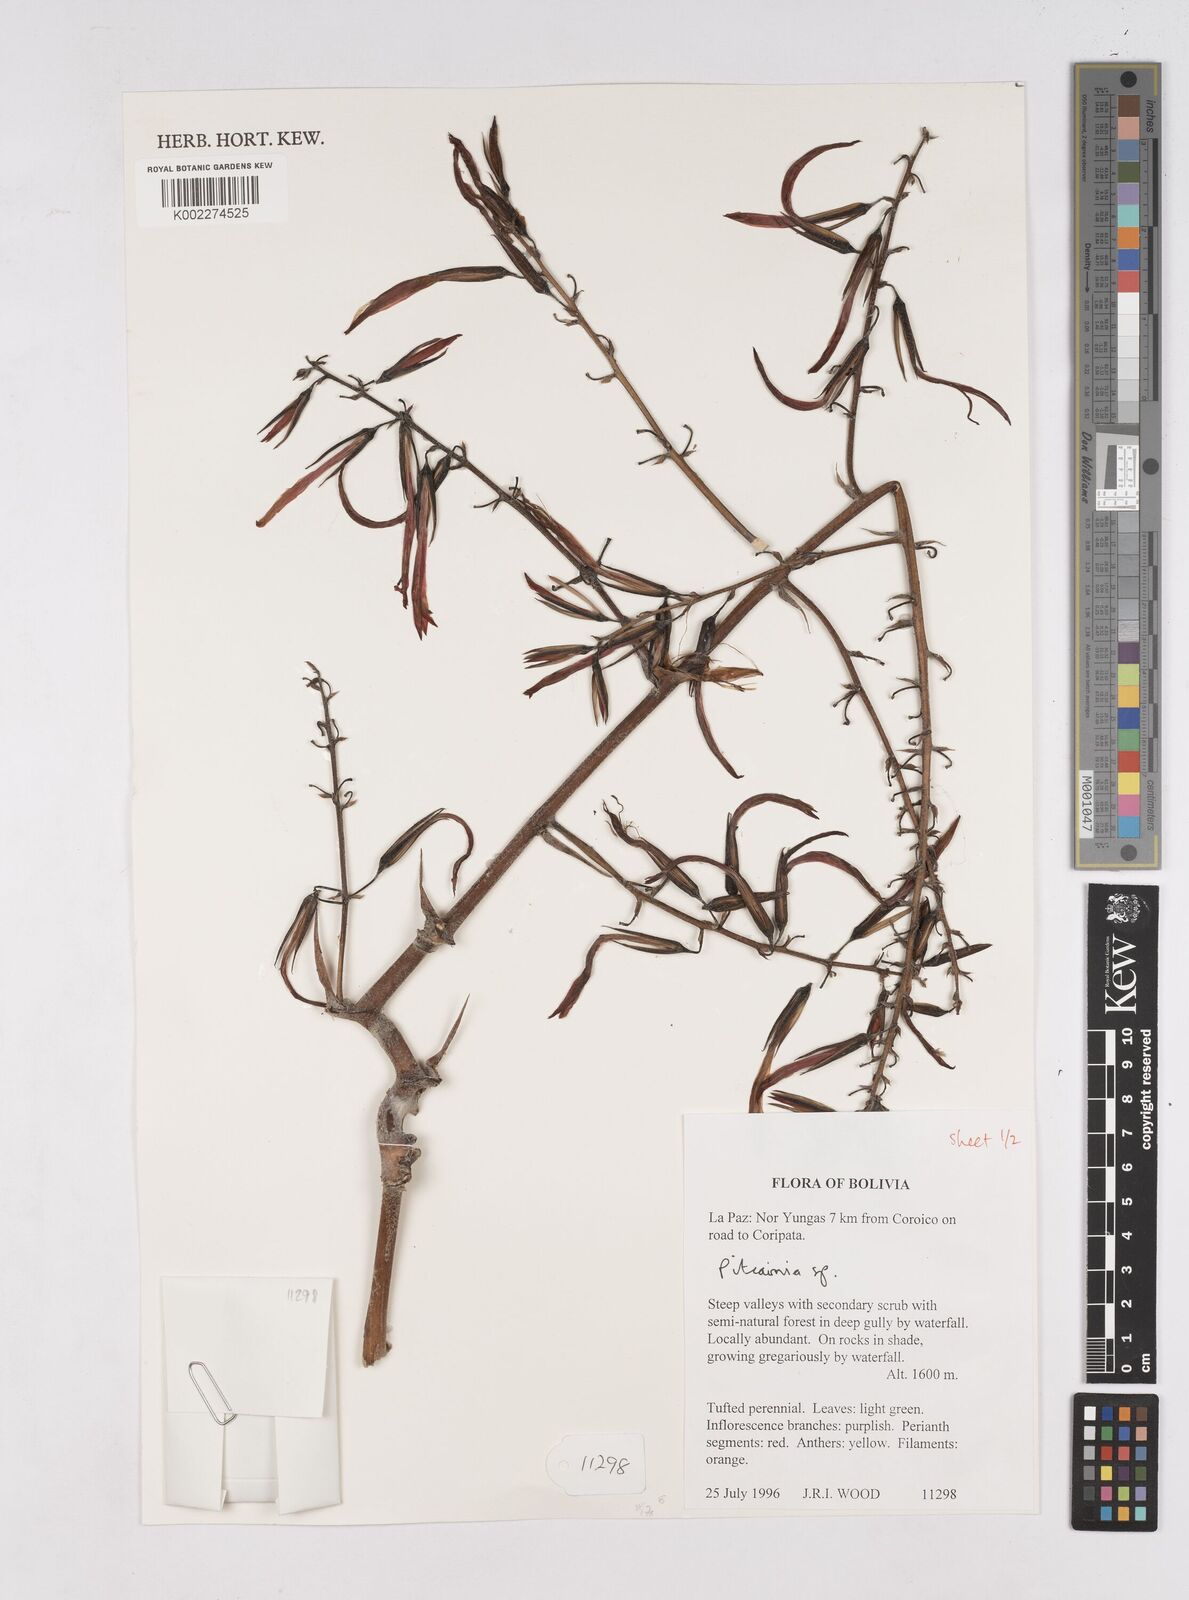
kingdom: Plantae
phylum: Tracheophyta
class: Liliopsida
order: Poales
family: Bromeliaceae
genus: Pitcairnia
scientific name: Pitcairnia
